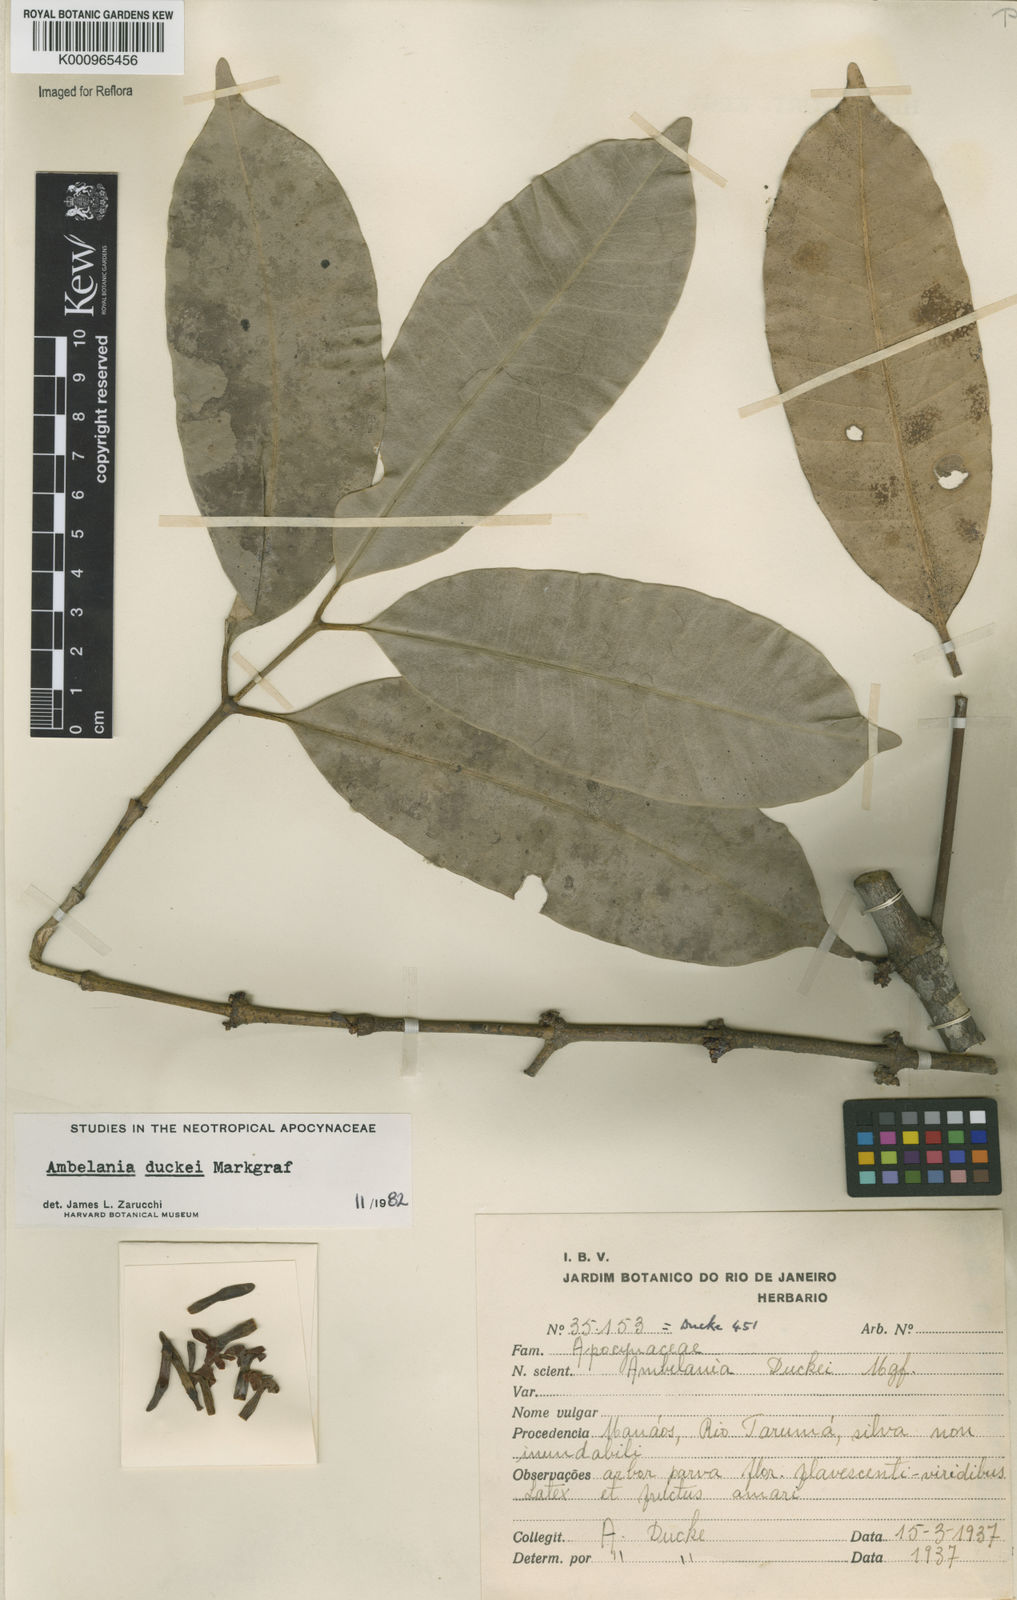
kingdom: Plantae
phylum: Tracheophyta
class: Magnoliopsida
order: Gentianales
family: Apocynaceae
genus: Ambelania
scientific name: Ambelania duckei
